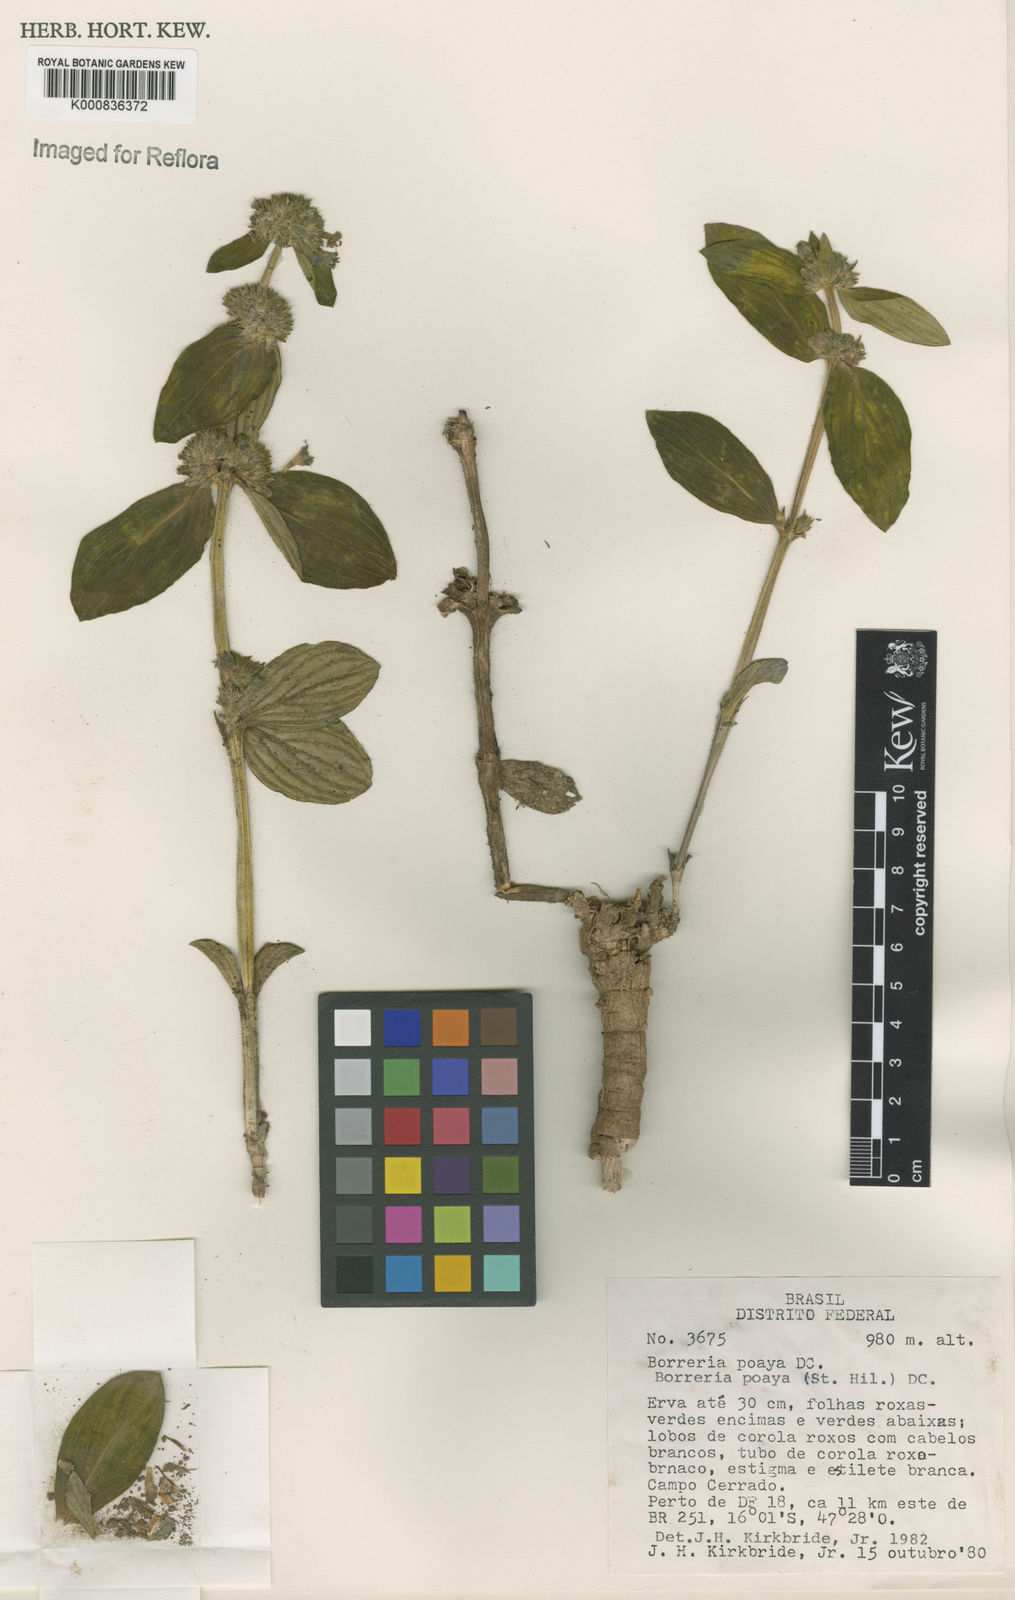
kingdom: Plantae
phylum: Tracheophyta
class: Magnoliopsida
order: Gentianales
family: Rubiaceae
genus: Spermacoce
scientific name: Spermacoce poaya
